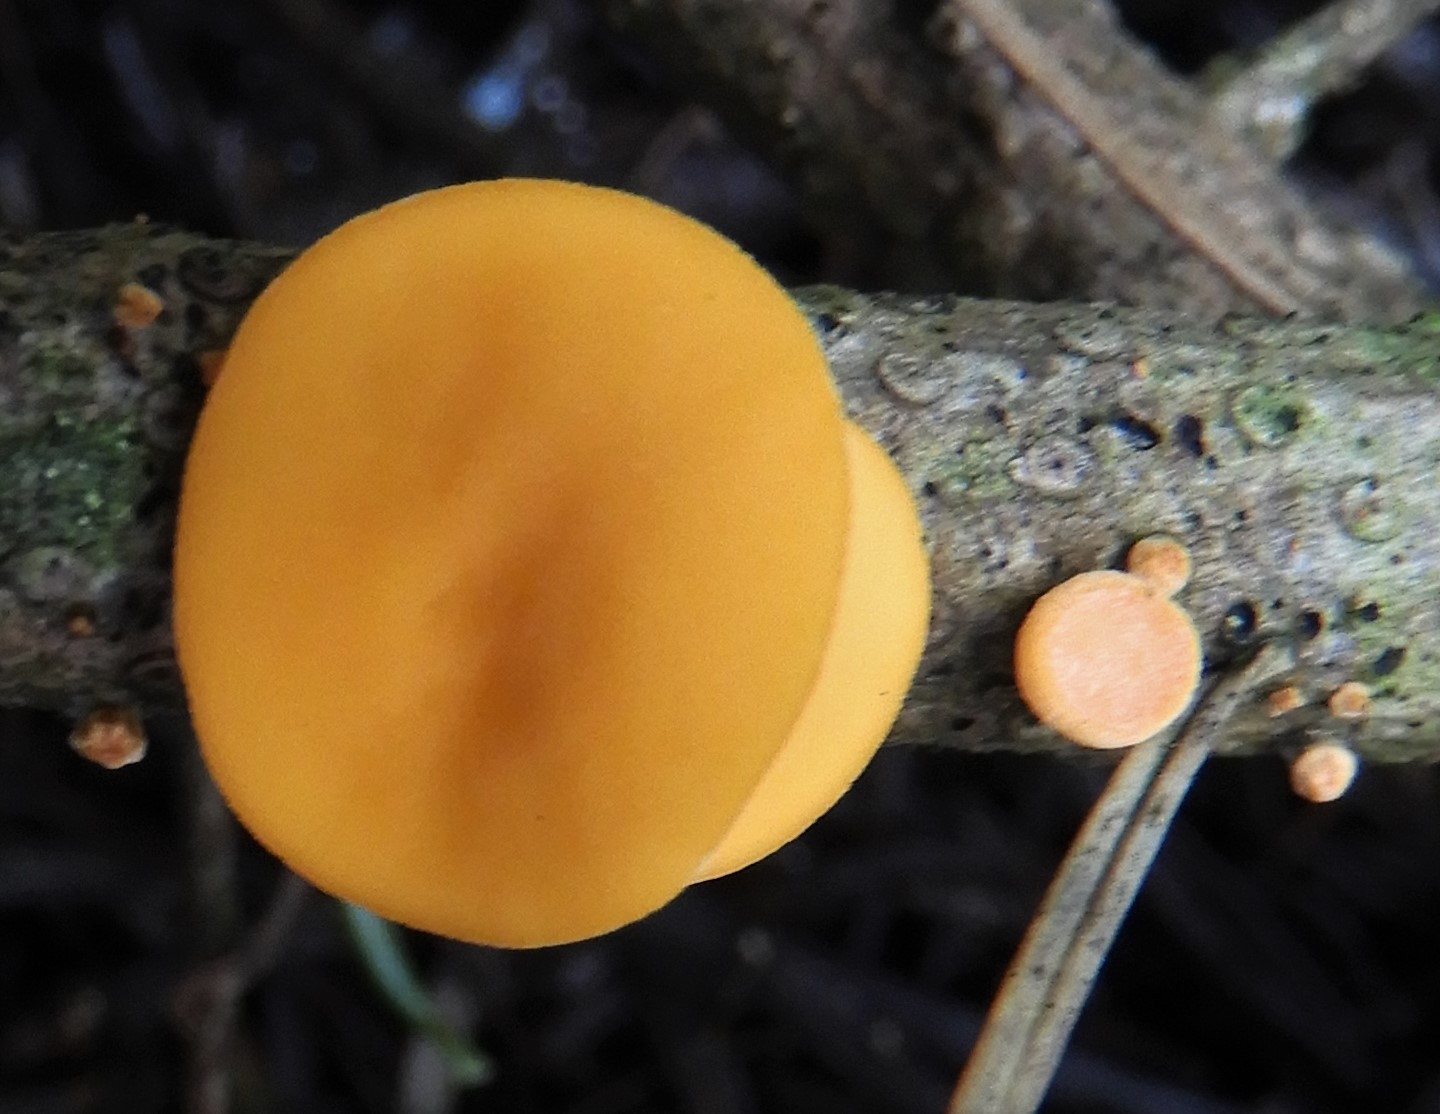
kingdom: Fungi
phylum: Ascomycota
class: Pezizomycetes
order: Pezizales
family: Sarcoscyphaceae
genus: Pithya
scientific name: Pithya vulgaris
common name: stor dukatbæger
